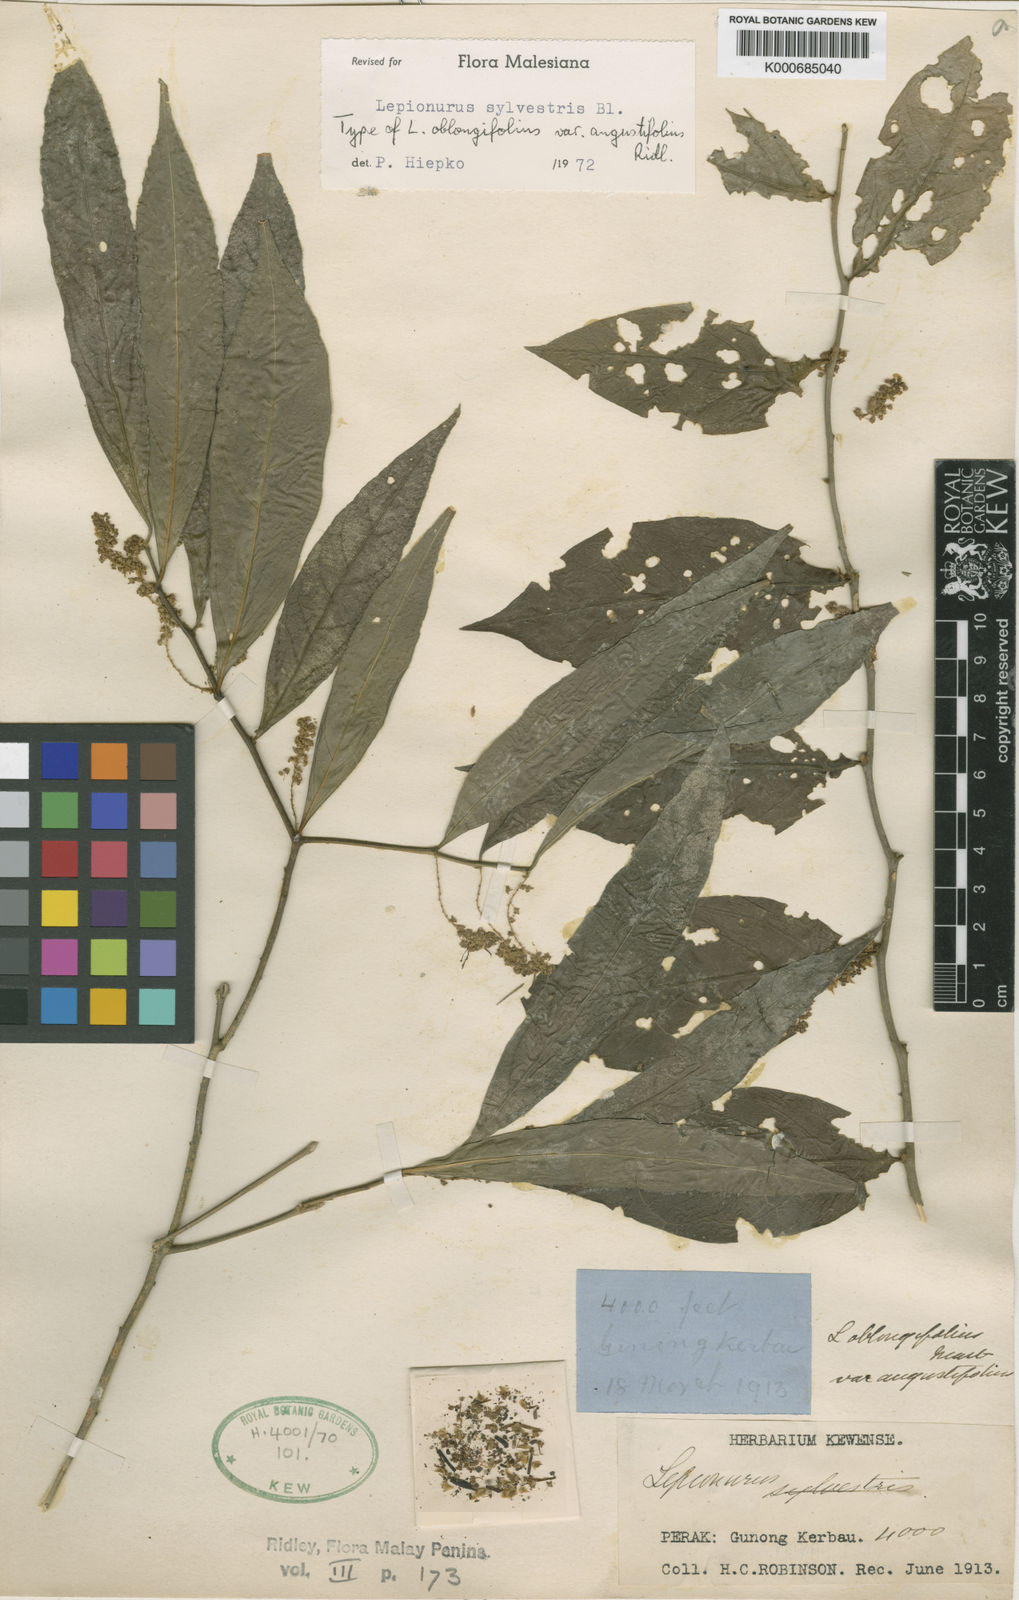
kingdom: Plantae
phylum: Tracheophyta
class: Magnoliopsida
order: Santalales
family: Opiliaceae
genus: Lepionurus
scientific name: Lepionurus sylvestris
